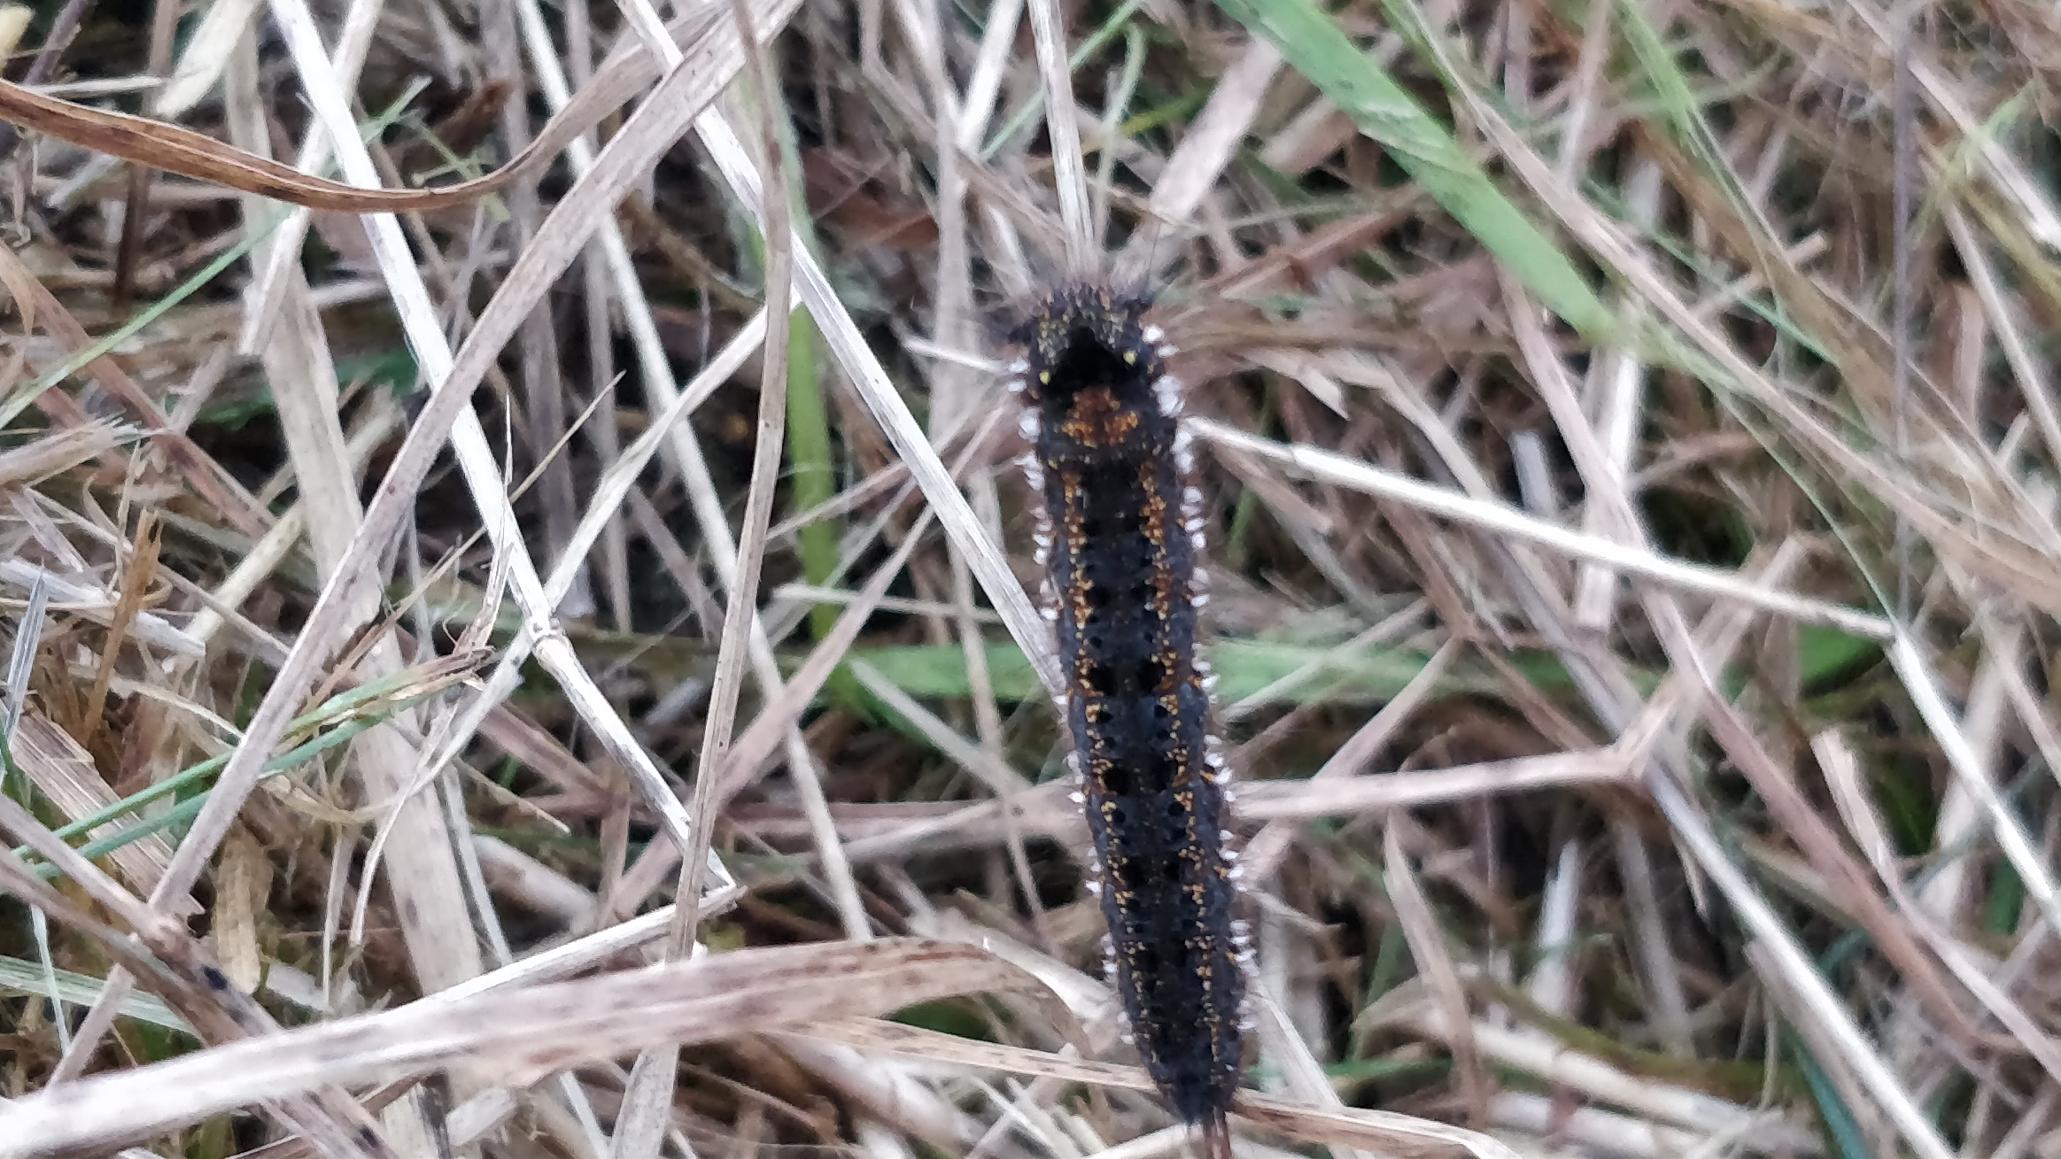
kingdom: Animalia
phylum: Arthropoda
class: Insecta
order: Lepidoptera
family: Lasiocampidae
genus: Euthrix
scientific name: Euthrix potatoria
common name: Græsspinder
